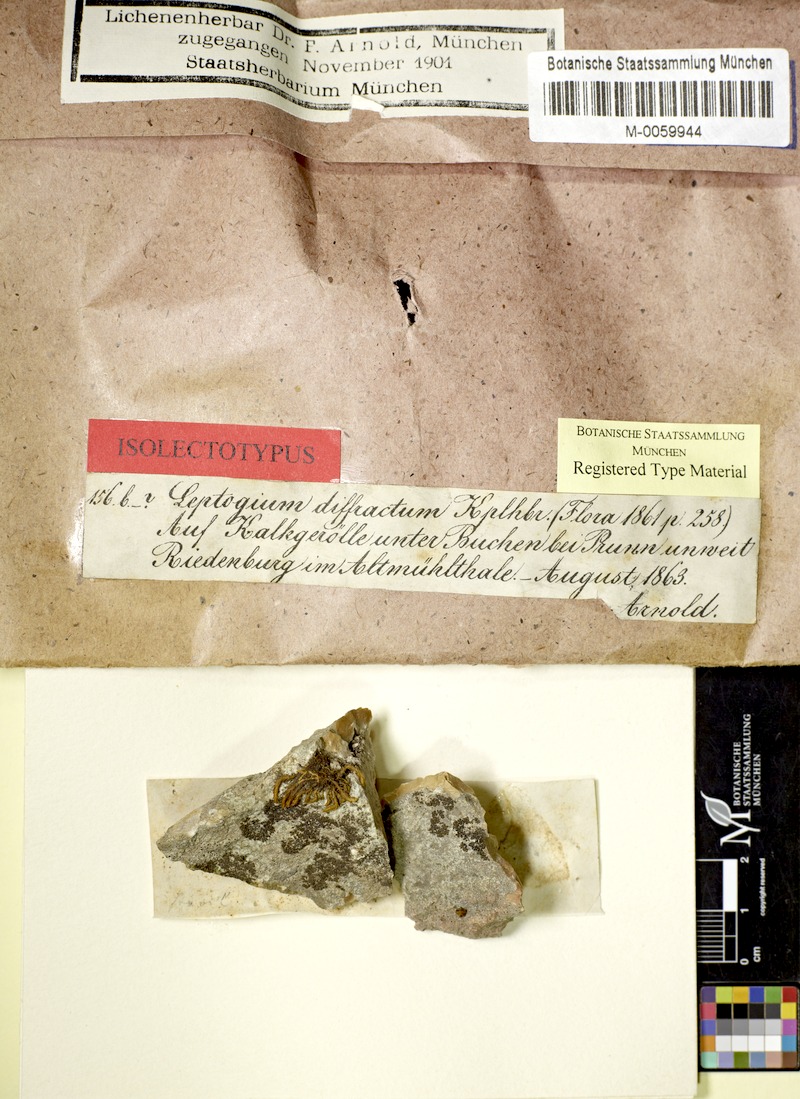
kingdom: Fungi
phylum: Ascomycota
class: Lecanoromycetes
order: Peltigerales
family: Collemataceae
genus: Pseudoleptogium
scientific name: Pseudoleptogium diffractum
